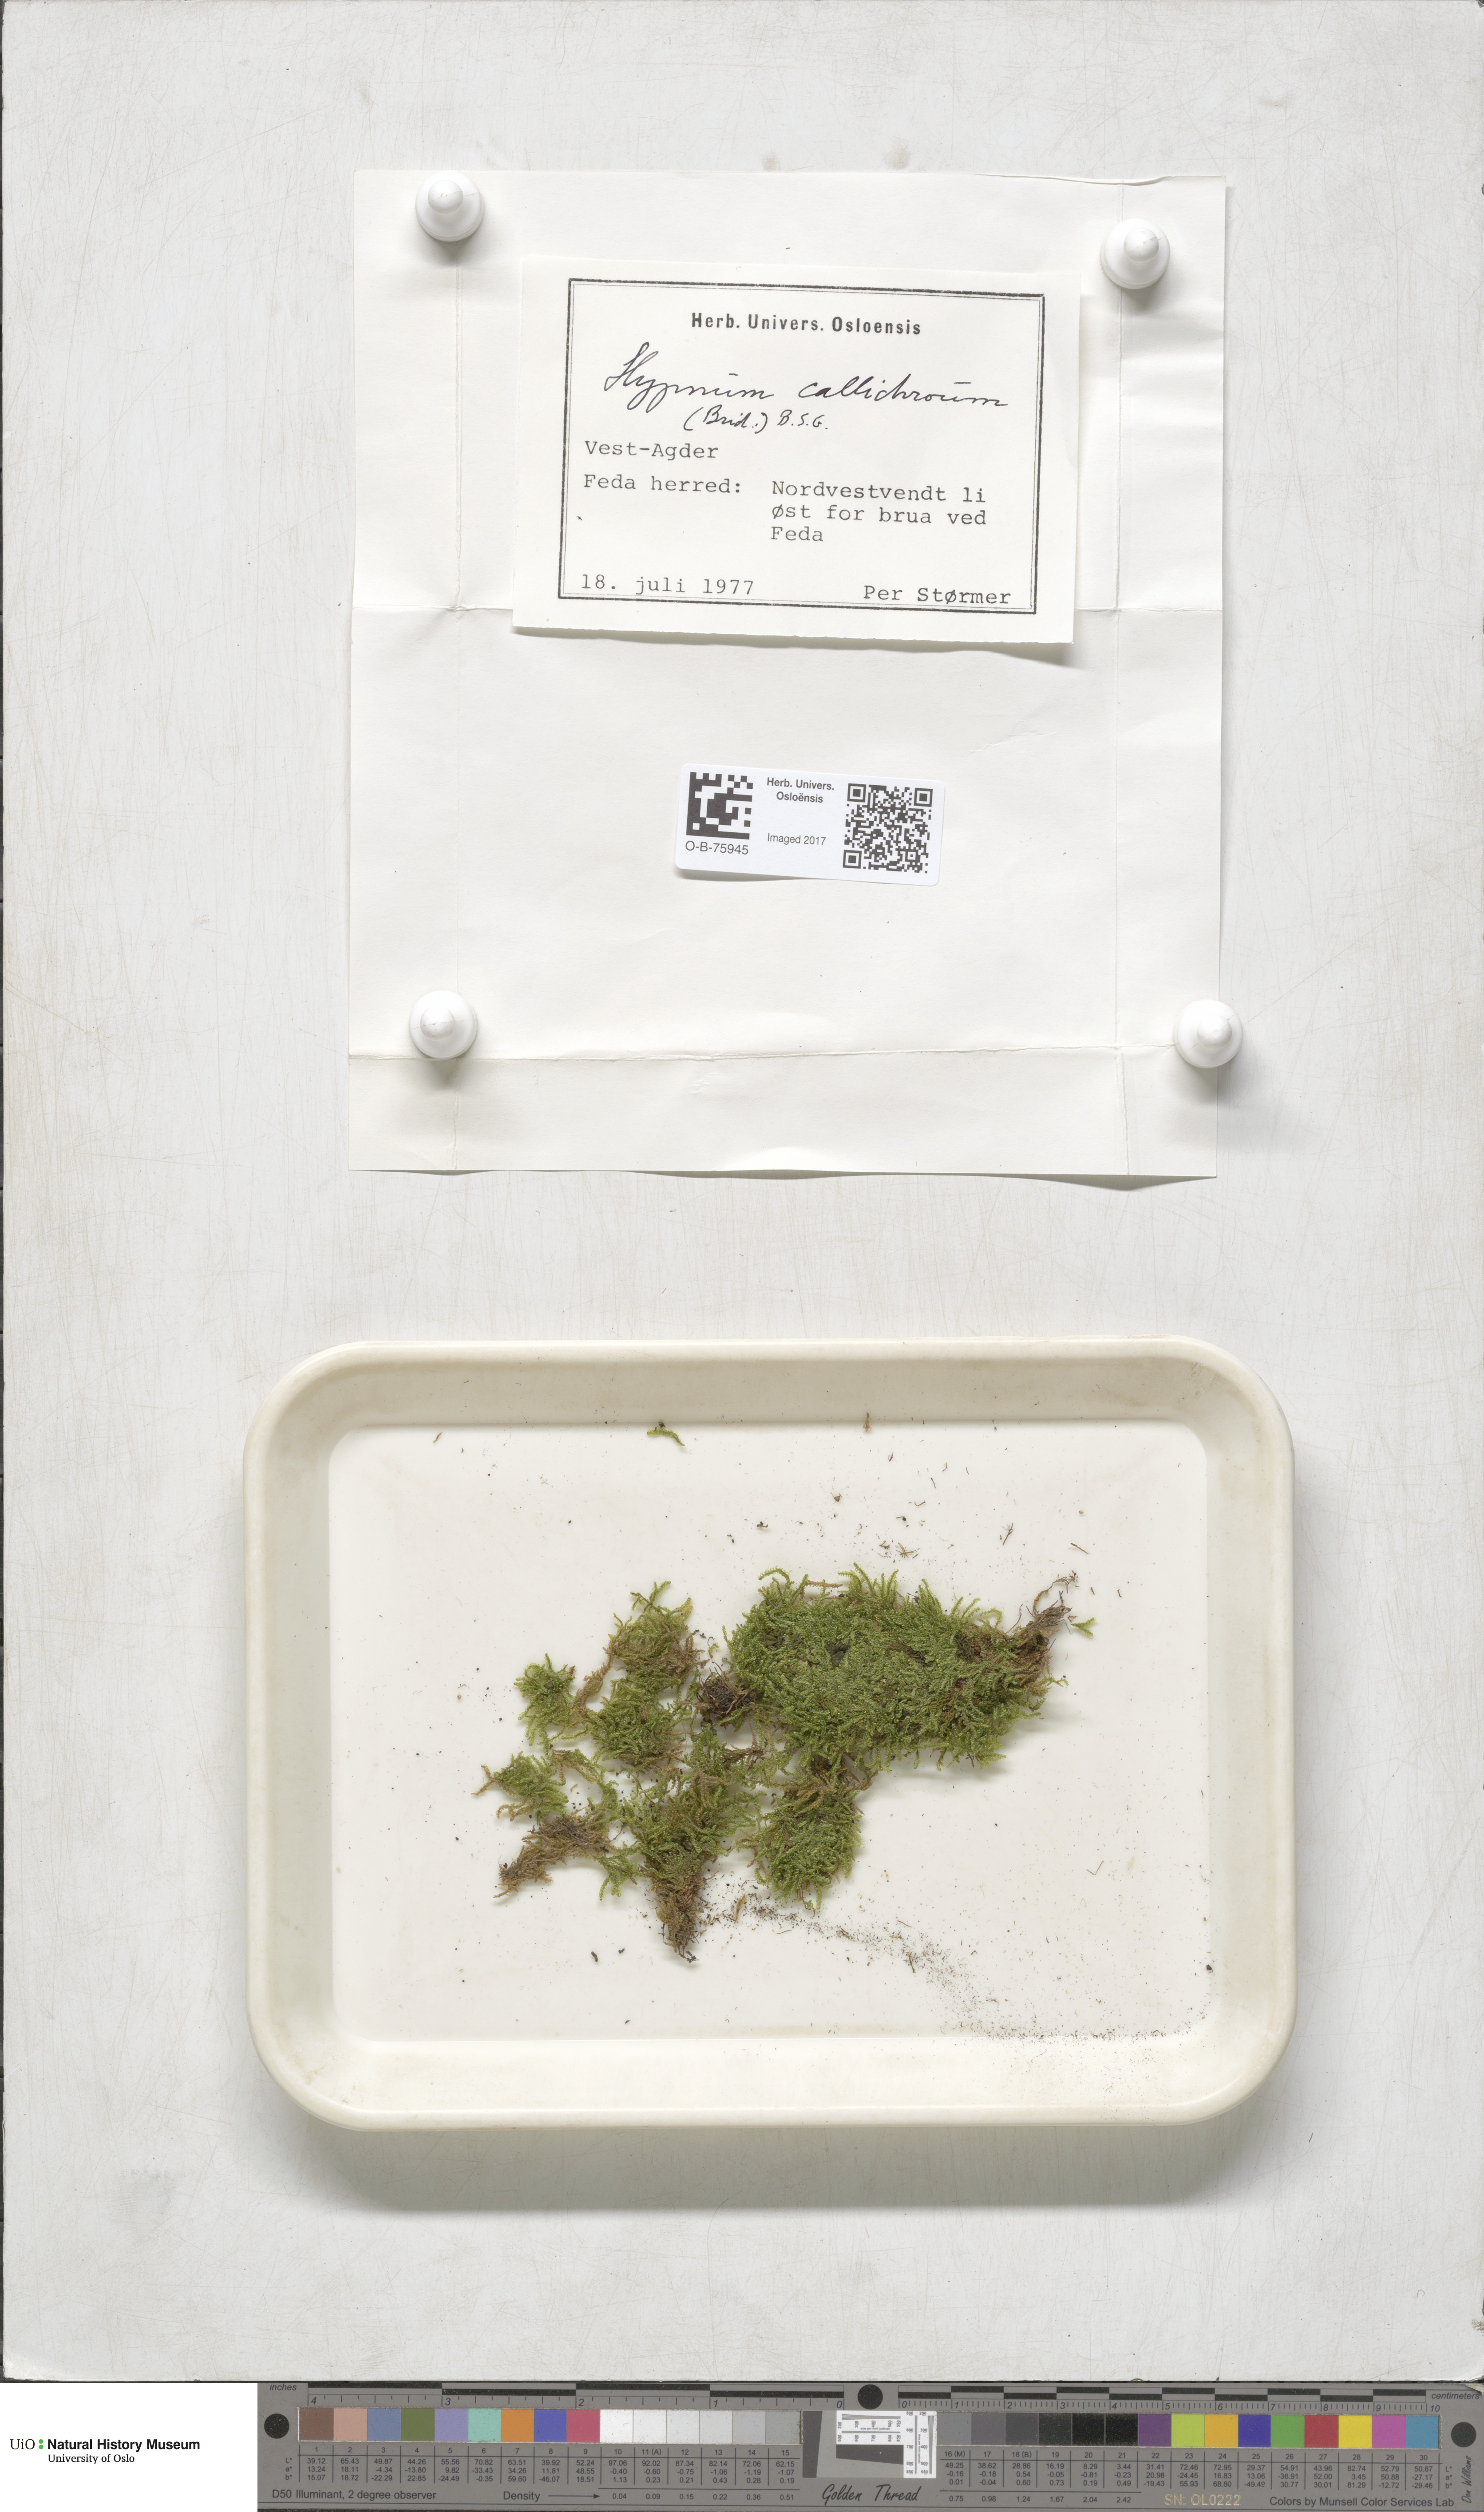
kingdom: Plantae
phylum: Bryophyta
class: Bryopsida
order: Hypnales
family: Stereodontaceae
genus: Stereodon
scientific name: Stereodon callichrous
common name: Downy plait-moss
